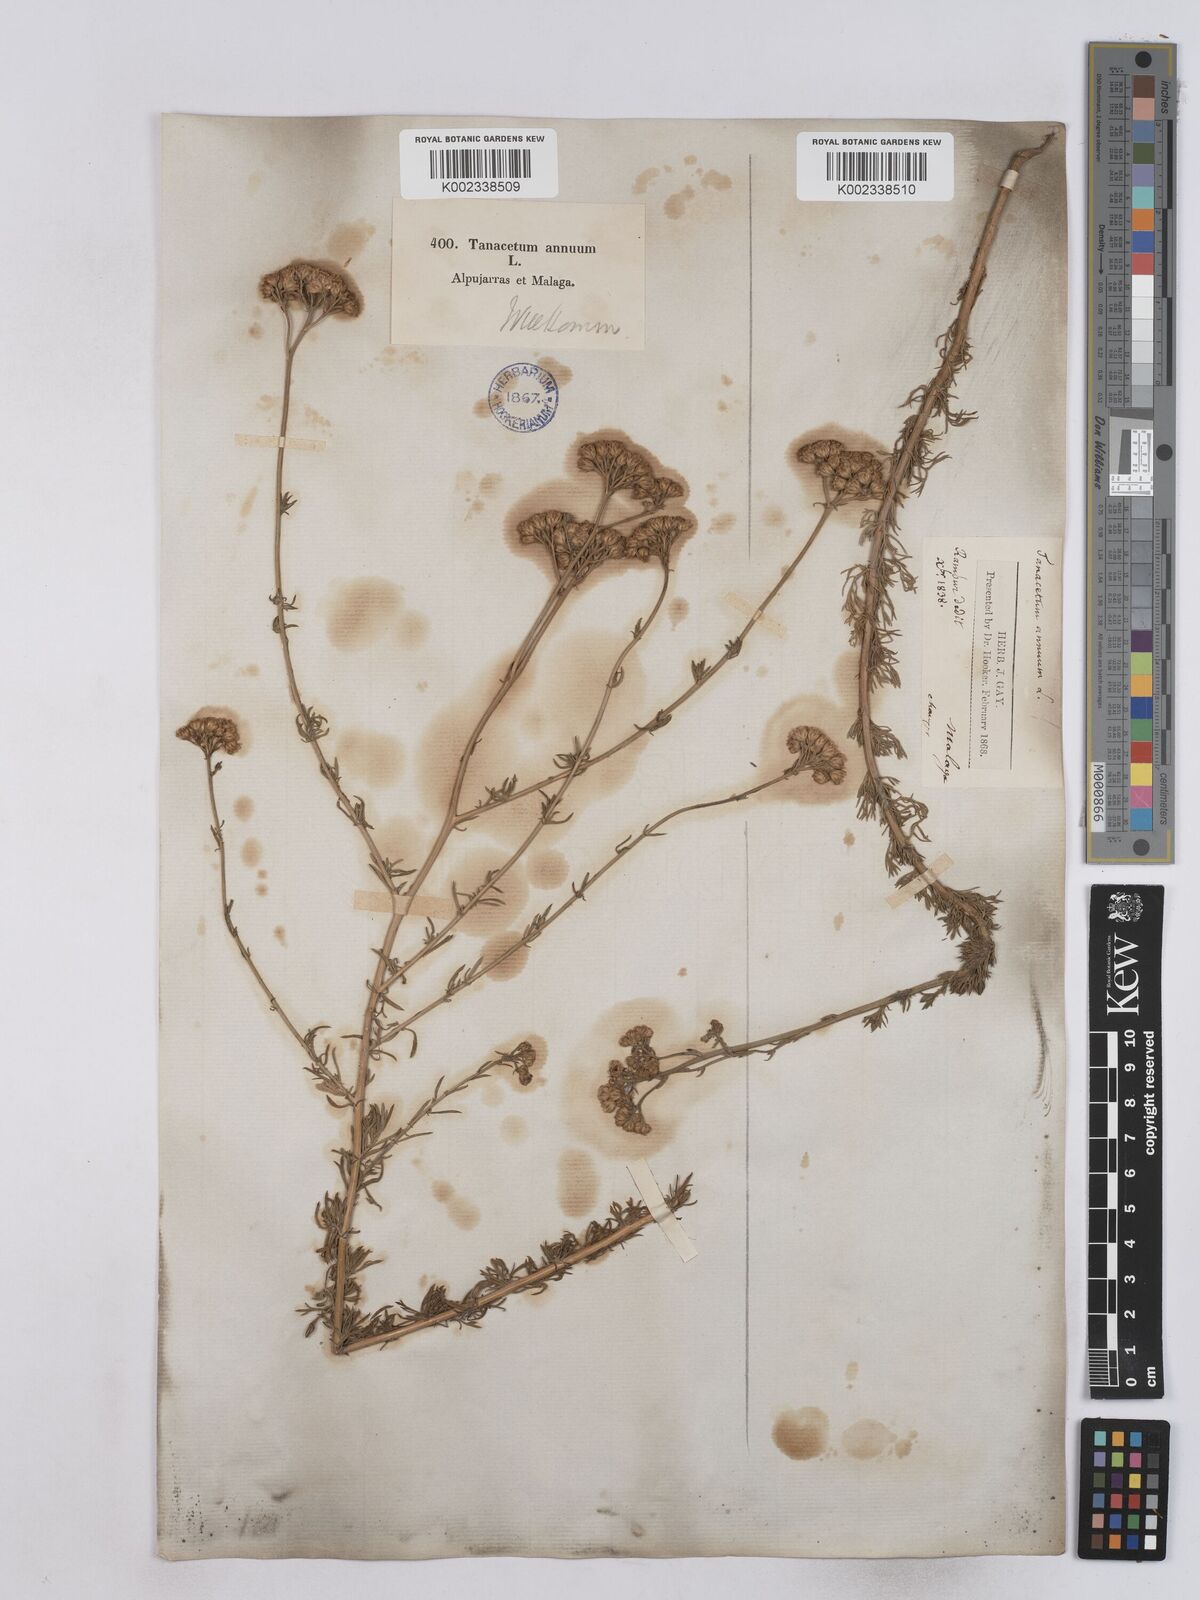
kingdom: Plantae
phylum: Tracheophyta
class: Magnoliopsida
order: Asterales
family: Asteraceae
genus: Vogtia
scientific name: Vogtia annua
